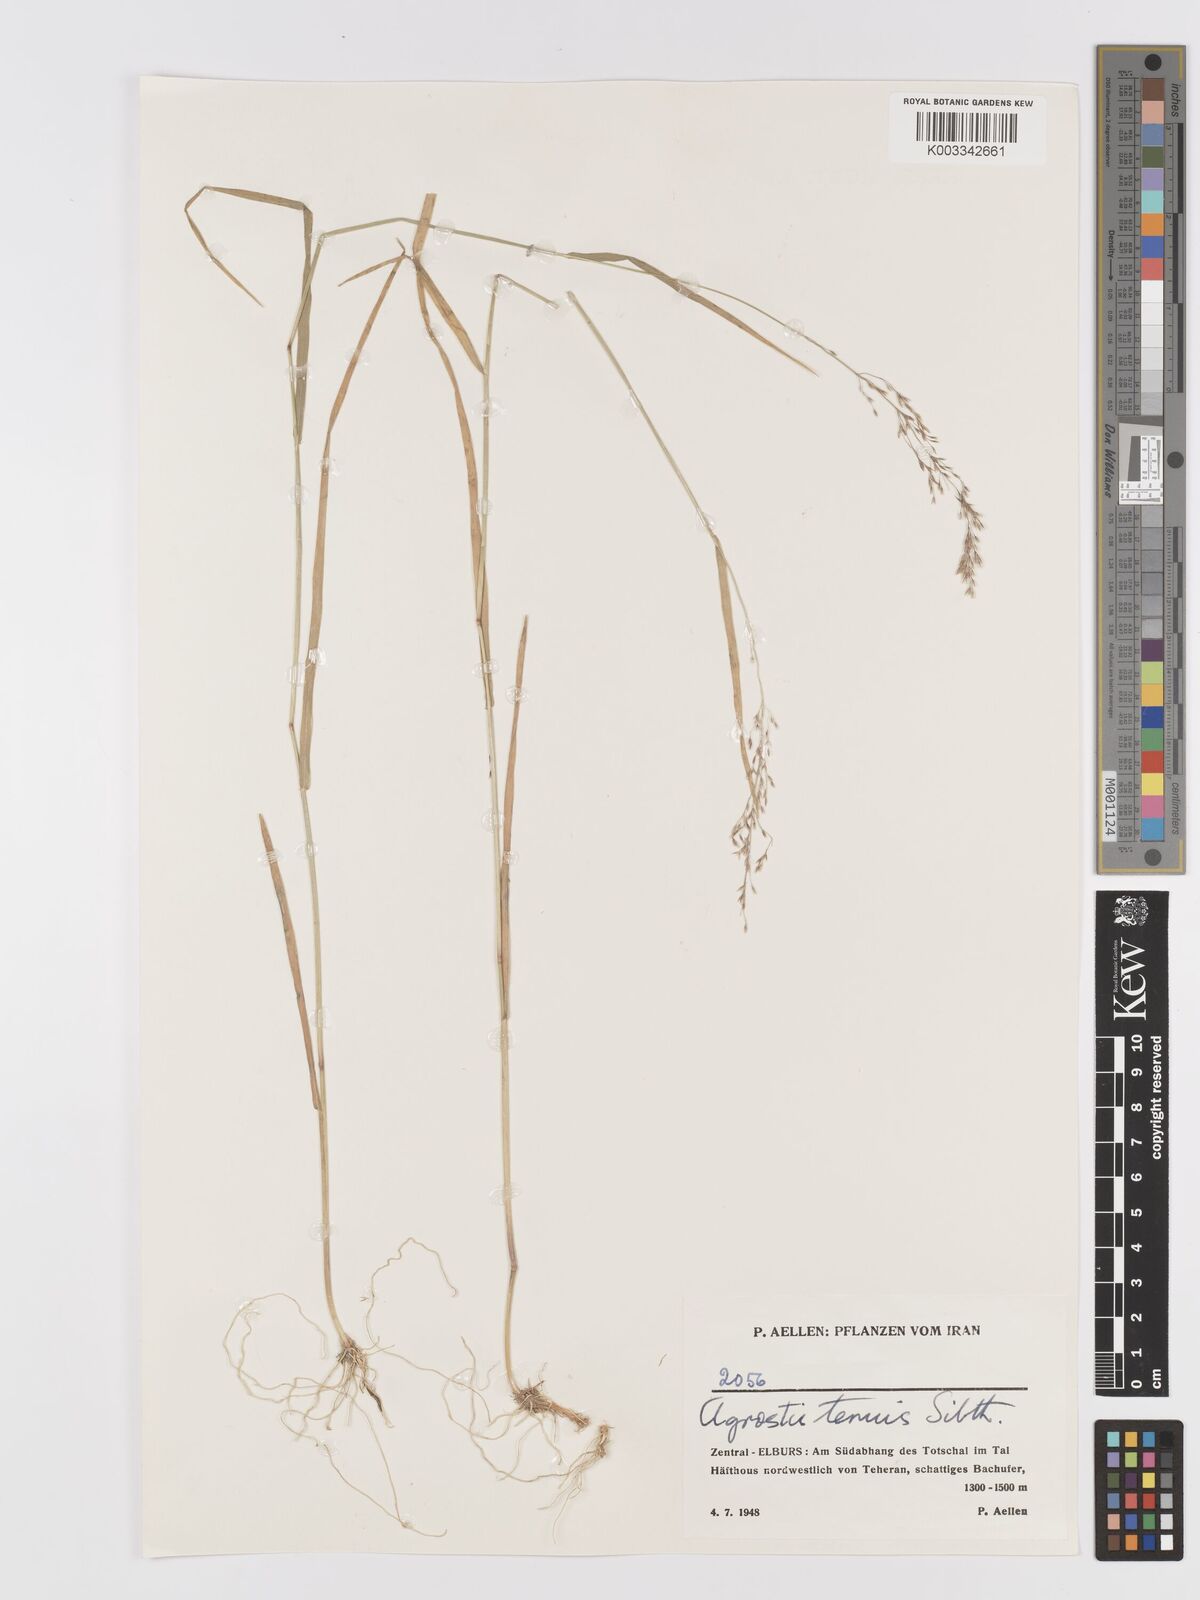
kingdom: Plantae
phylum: Tracheophyta
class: Liliopsida
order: Poales
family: Poaceae
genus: Agrostis
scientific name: Agrostis capillaris
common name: Colonial bentgrass
